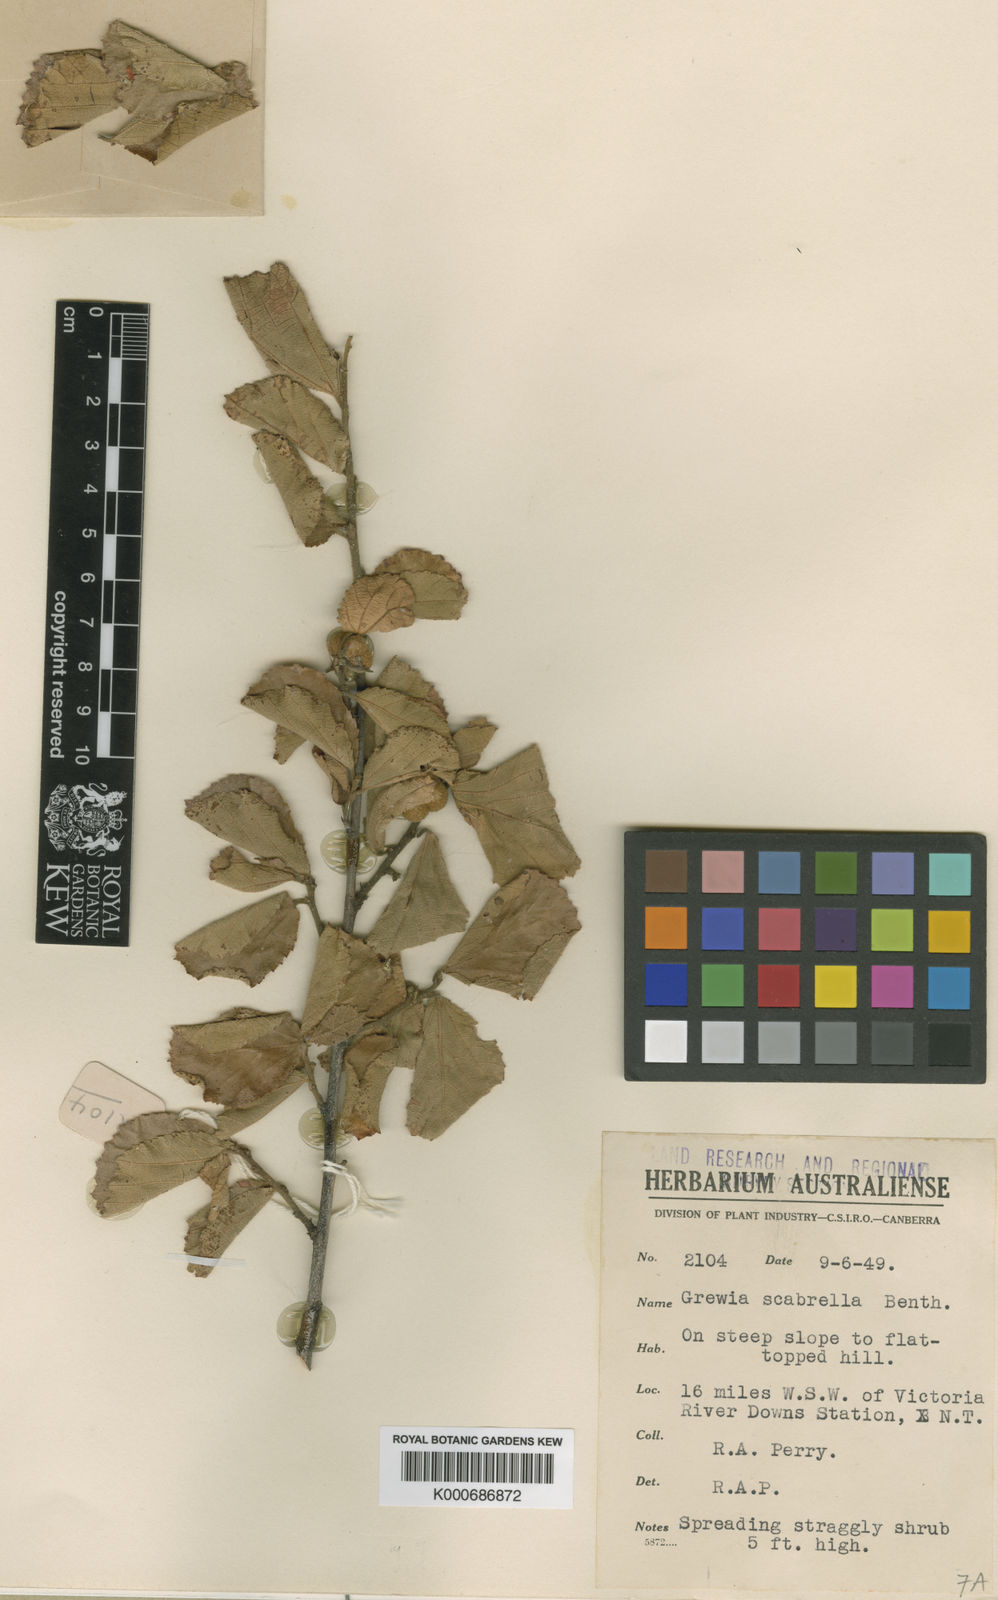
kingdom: Plantae
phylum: Tracheophyta
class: Magnoliopsida
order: Malvales
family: Malvaceae
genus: Grewia
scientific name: Grewia scabrella
